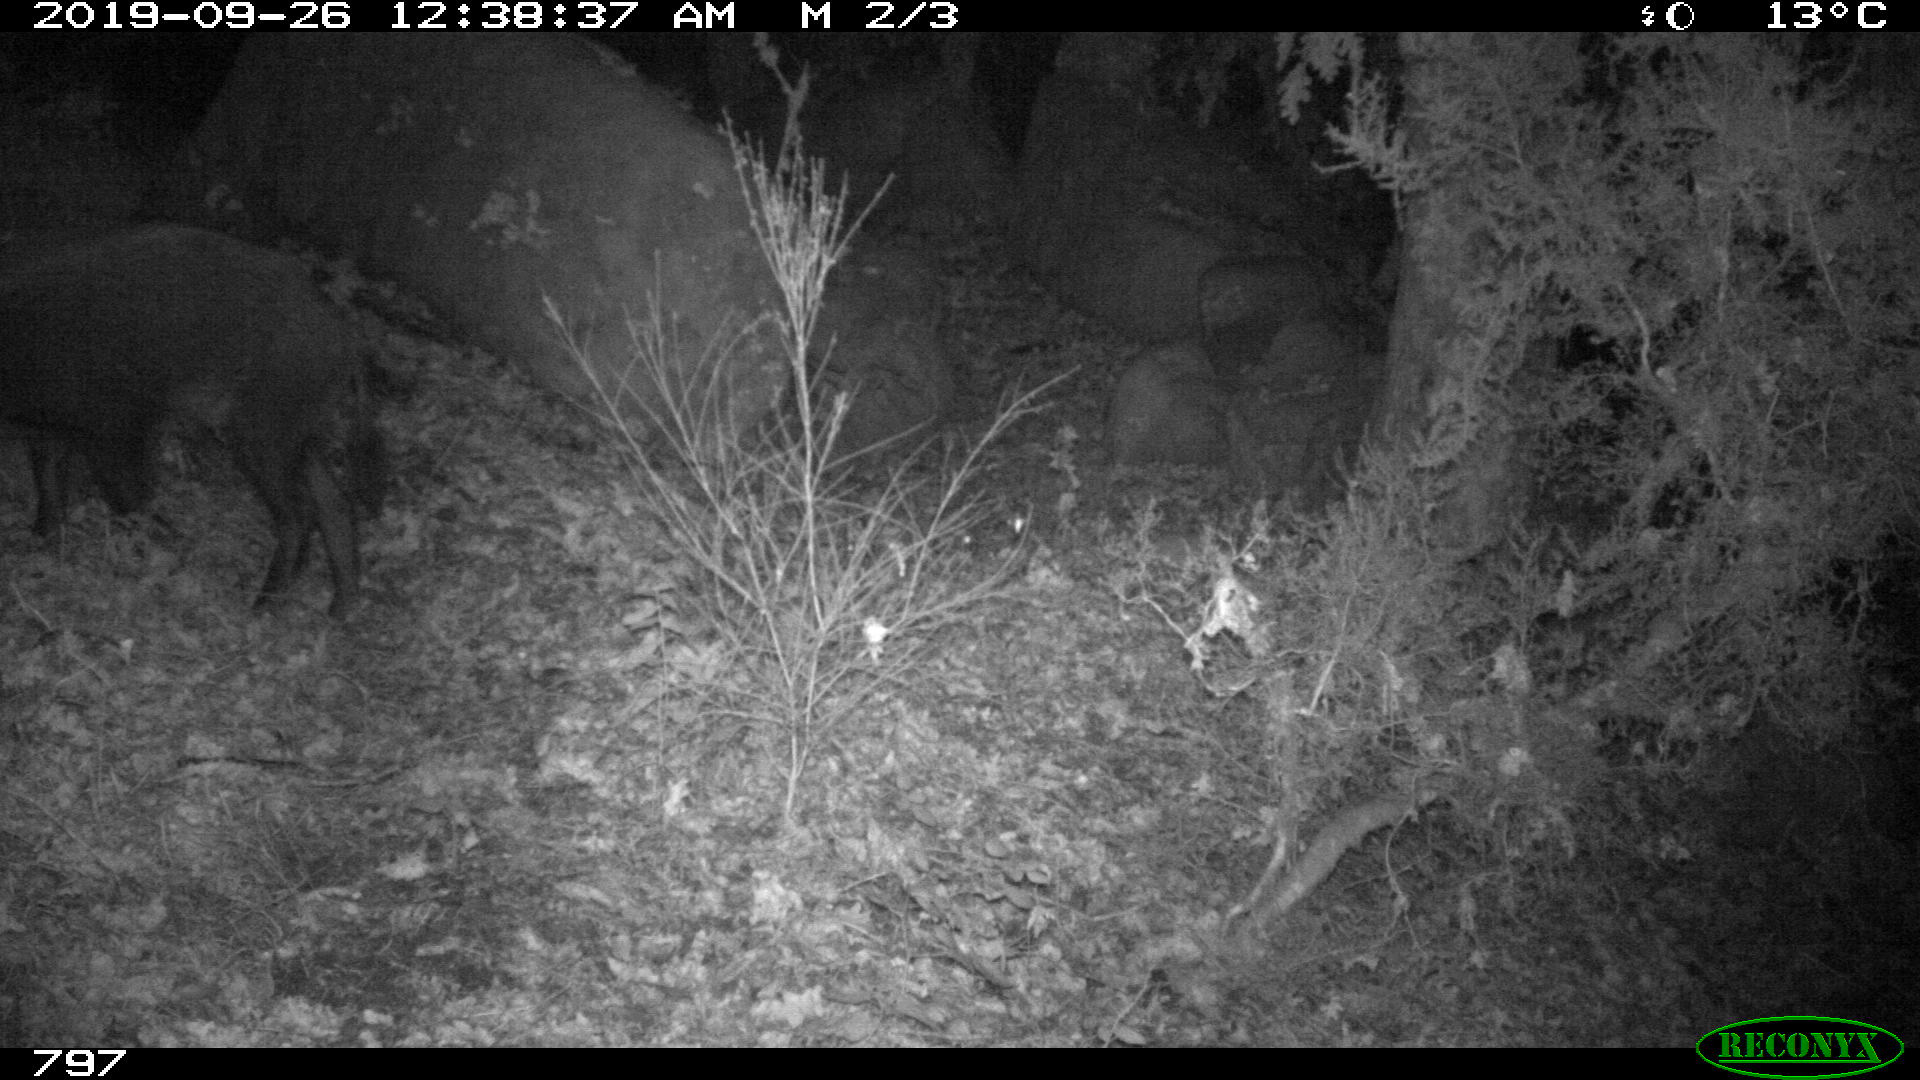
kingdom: Animalia
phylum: Chordata
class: Mammalia
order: Artiodactyla
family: Suidae
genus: Sus
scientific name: Sus scrofa
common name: Wild boar
